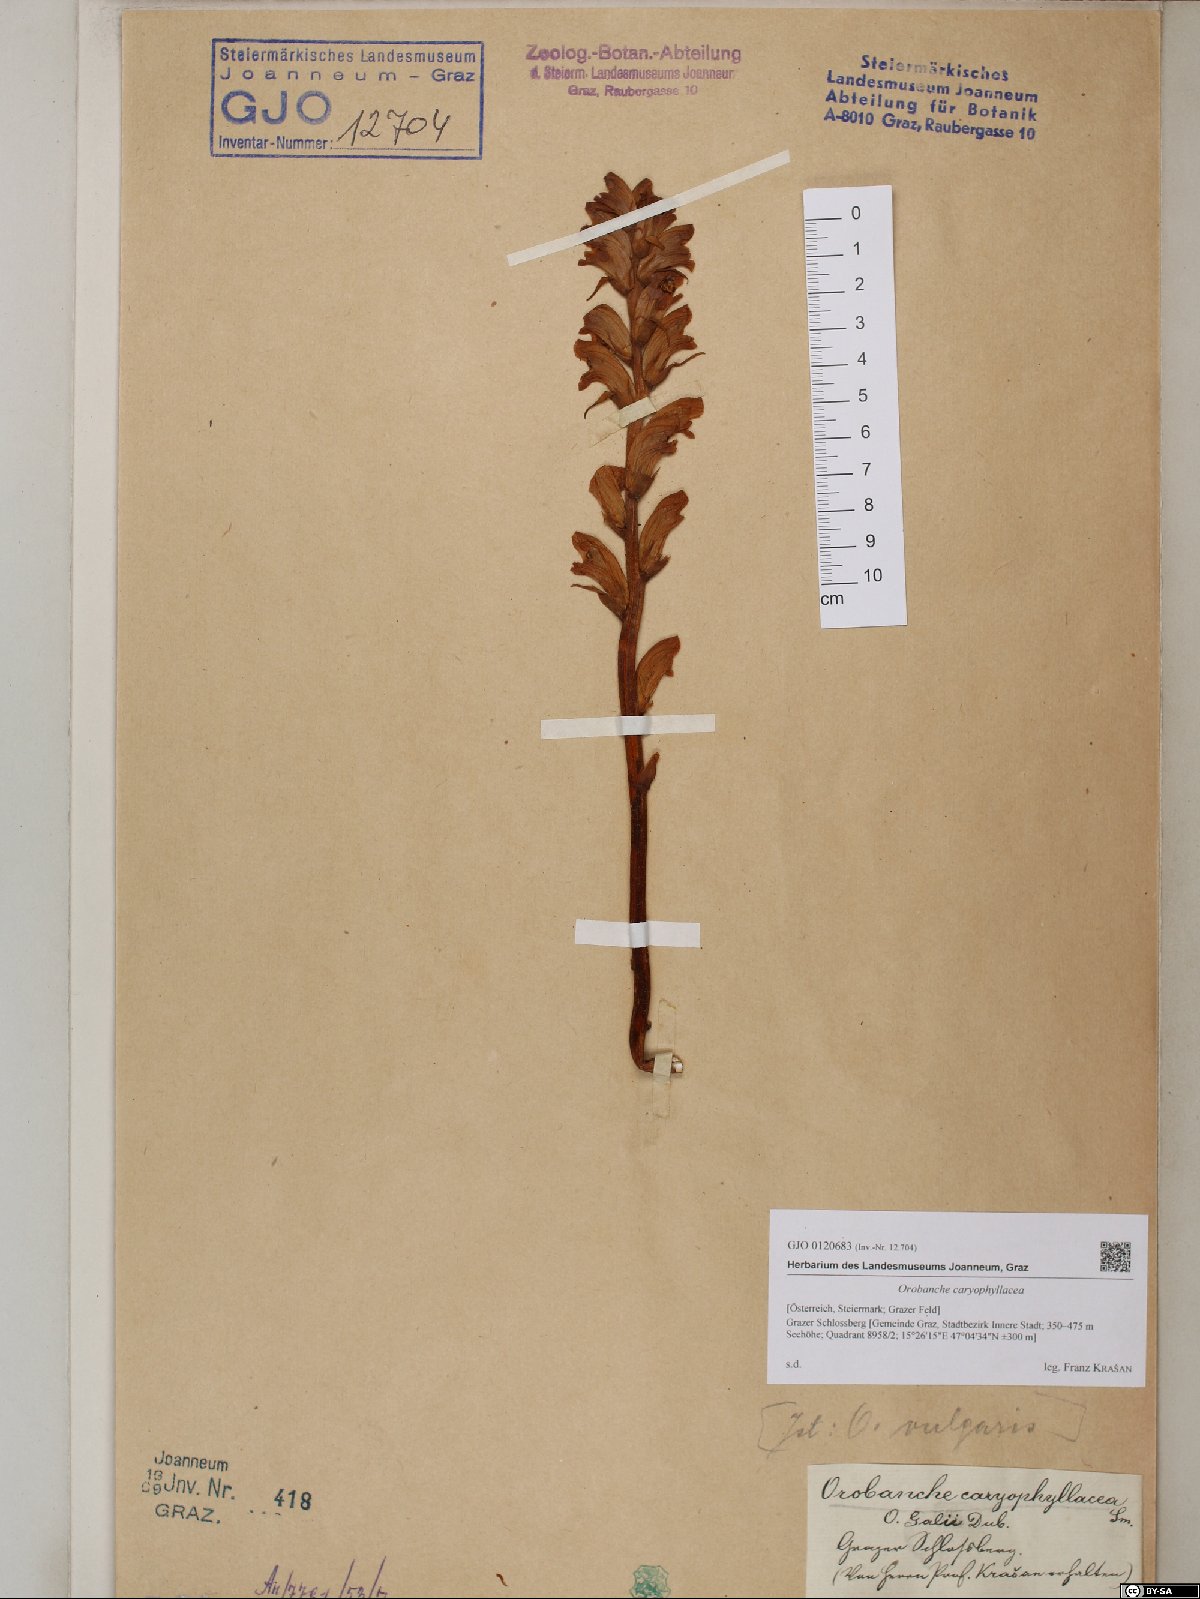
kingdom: Plantae
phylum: Tracheophyta
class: Magnoliopsida
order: Lamiales
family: Orobanchaceae
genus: Orobanche
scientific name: Orobanche caryophyllacea
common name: Bedstraw broomrape
